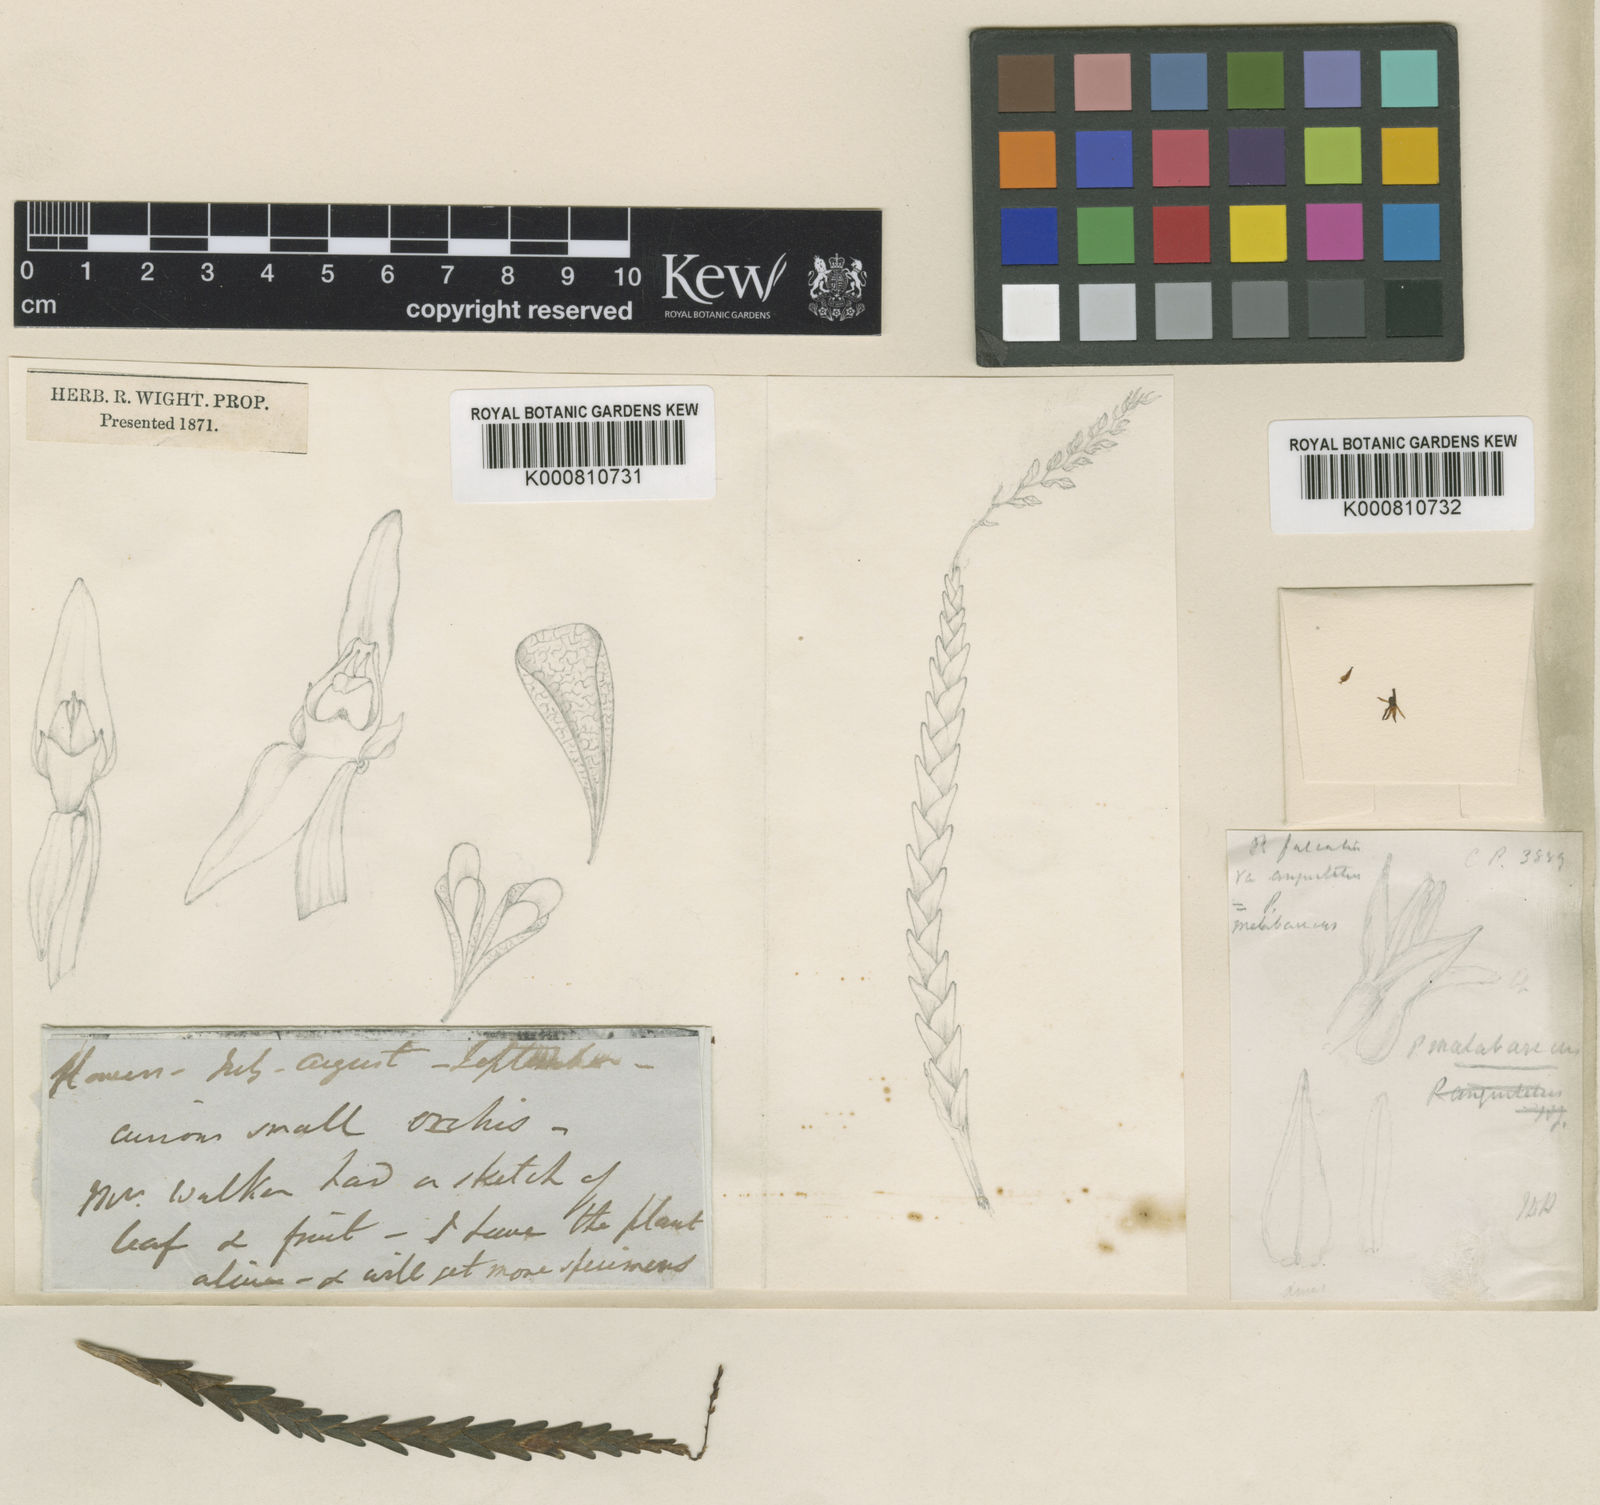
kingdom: Plantae
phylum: Tracheophyta
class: Liliopsida
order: Asparagales
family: Orchidaceae
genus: Podochilus
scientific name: Podochilus falcatus
